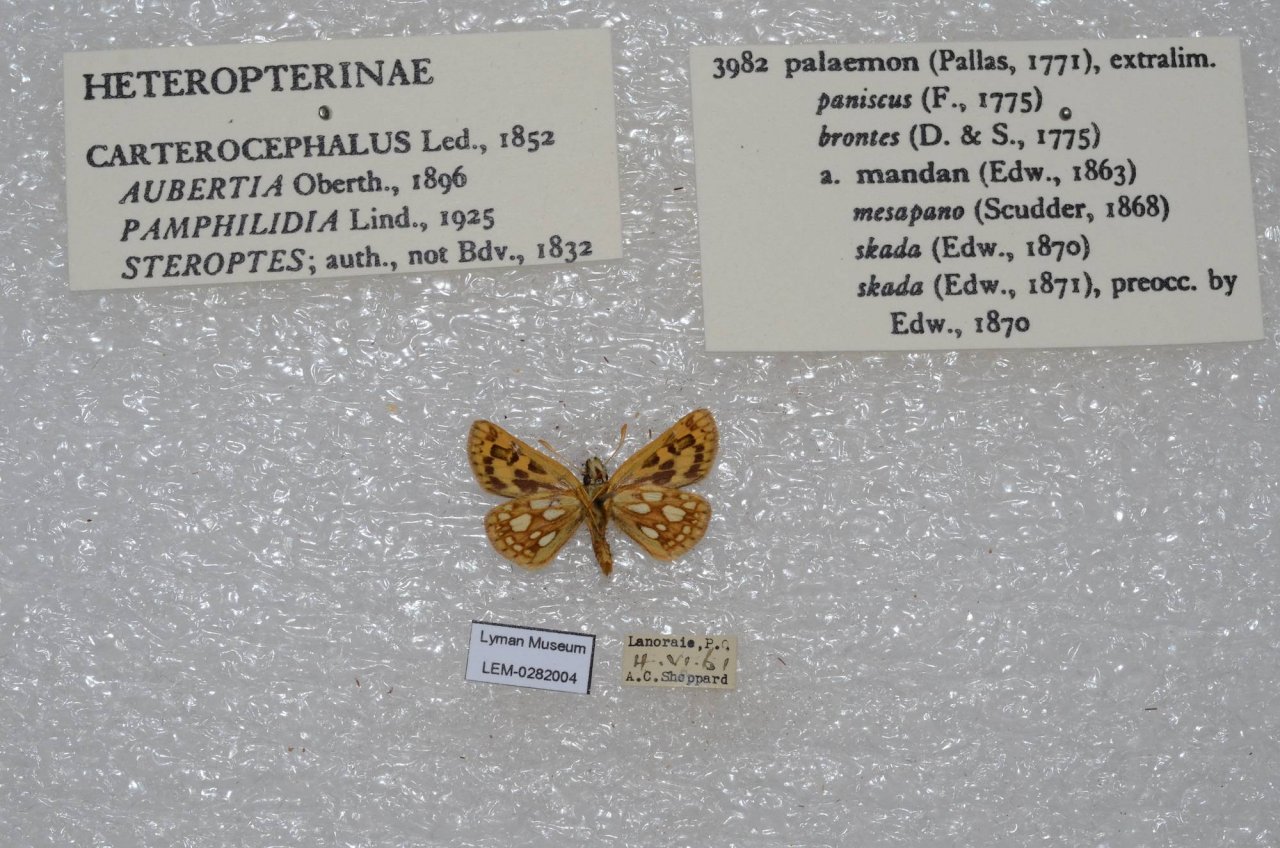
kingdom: Animalia
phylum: Arthropoda
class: Insecta
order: Lepidoptera
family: Hesperiidae
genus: Carterocephalus
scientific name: Carterocephalus palaemon
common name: Chequered Skipper
